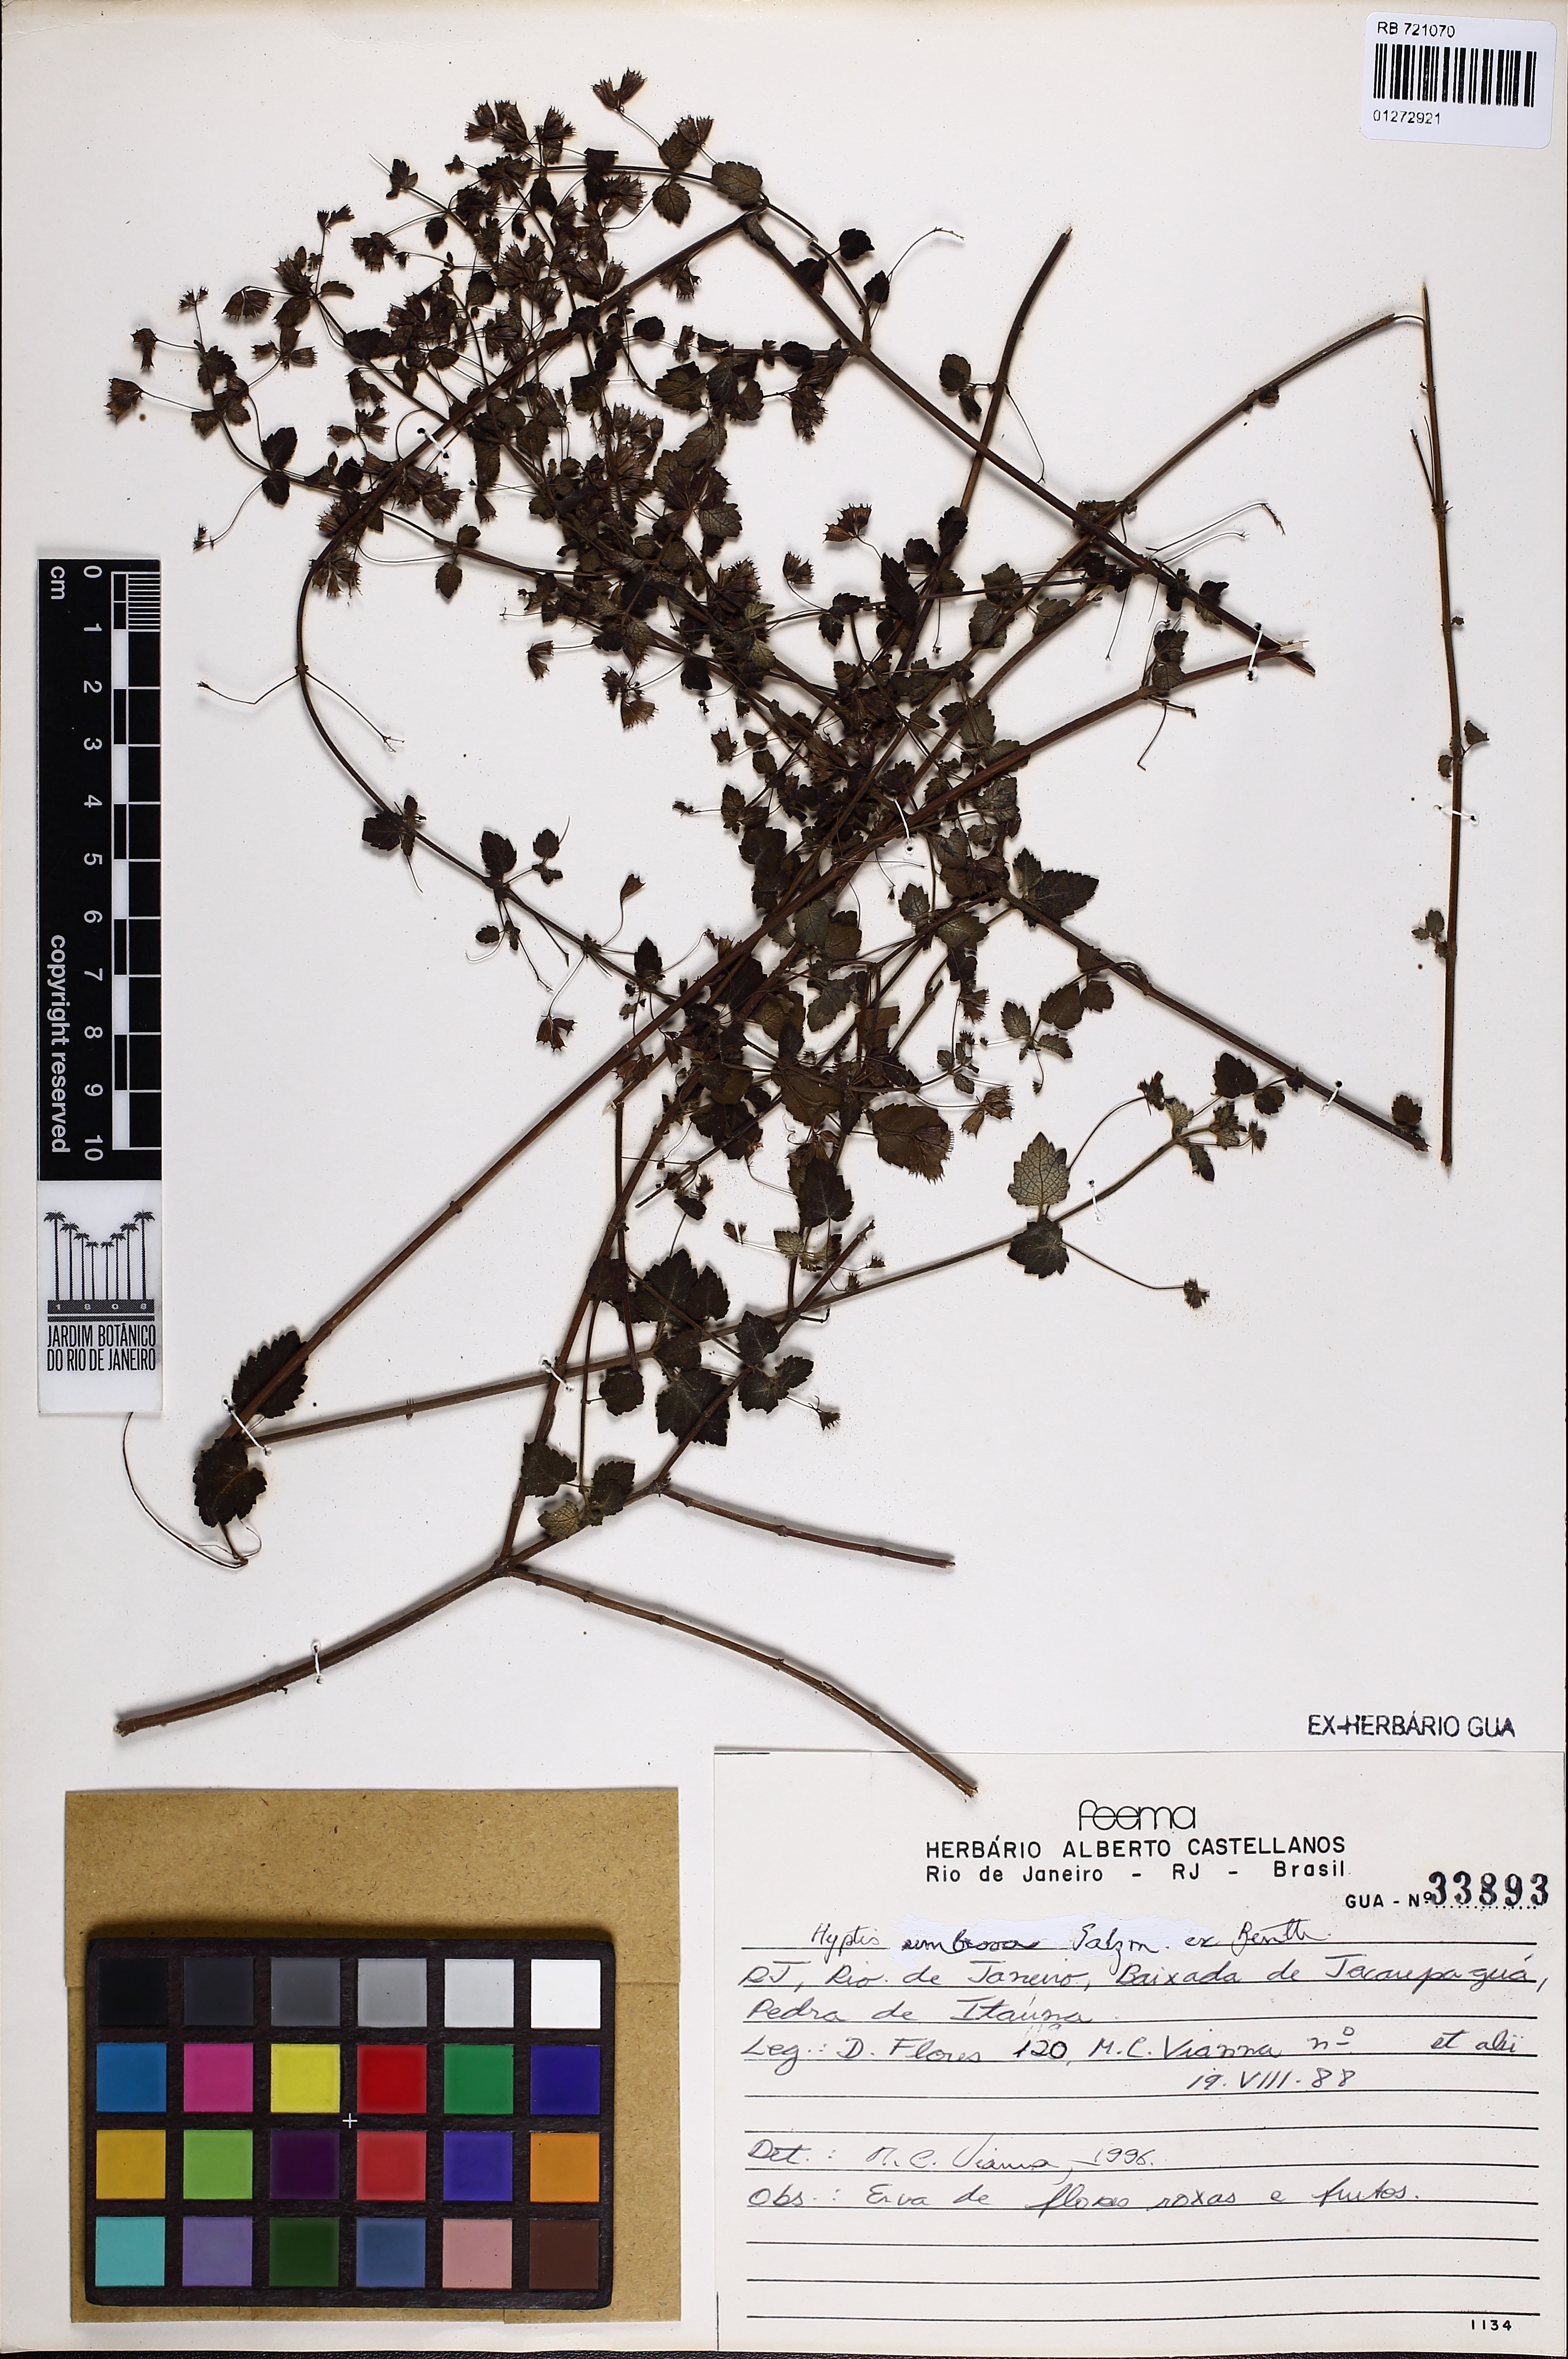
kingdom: Plantae
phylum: Tracheophyta
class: Magnoliopsida
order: Lamiales
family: Lamiaceae
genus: Mesosphaerum
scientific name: Mesosphaerum sidifolium
